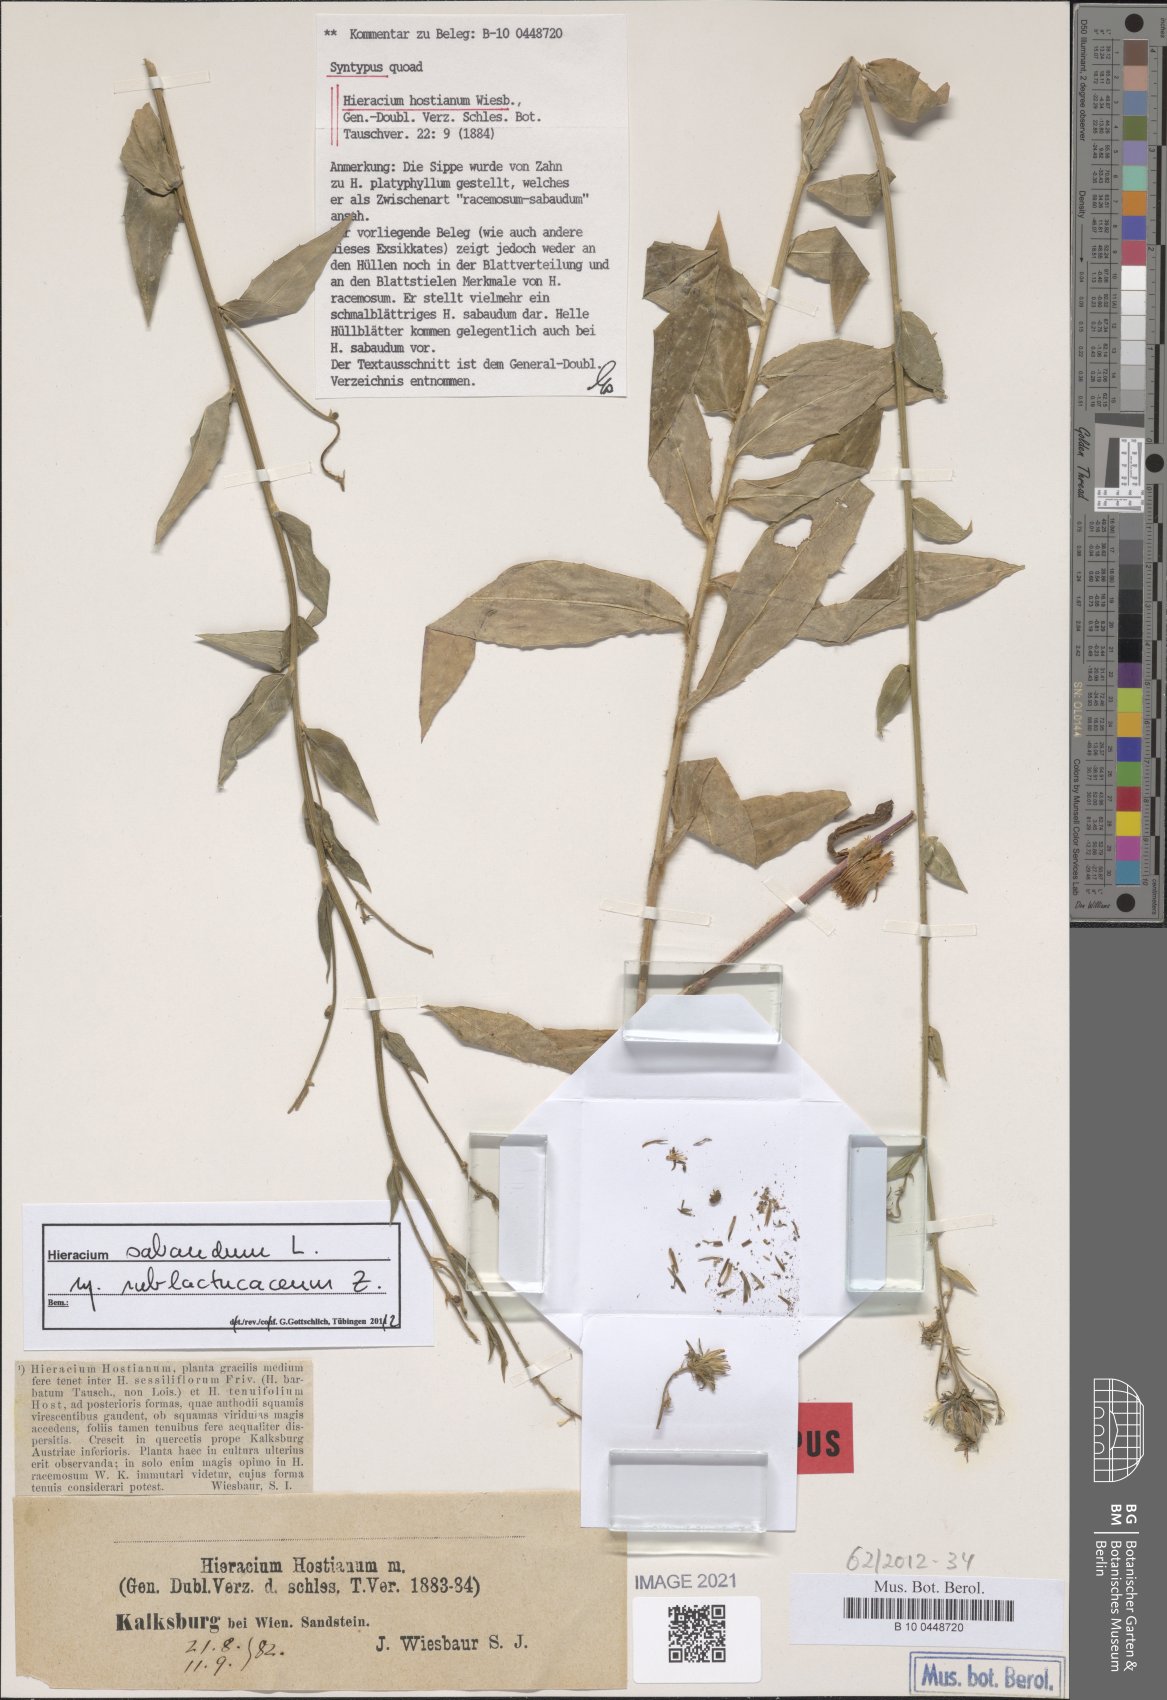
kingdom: Plantae
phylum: Tracheophyta
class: Magnoliopsida
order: Asterales
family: Asteraceae
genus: Hieracium
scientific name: Hieracium sabaudum
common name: New england hawkweed
